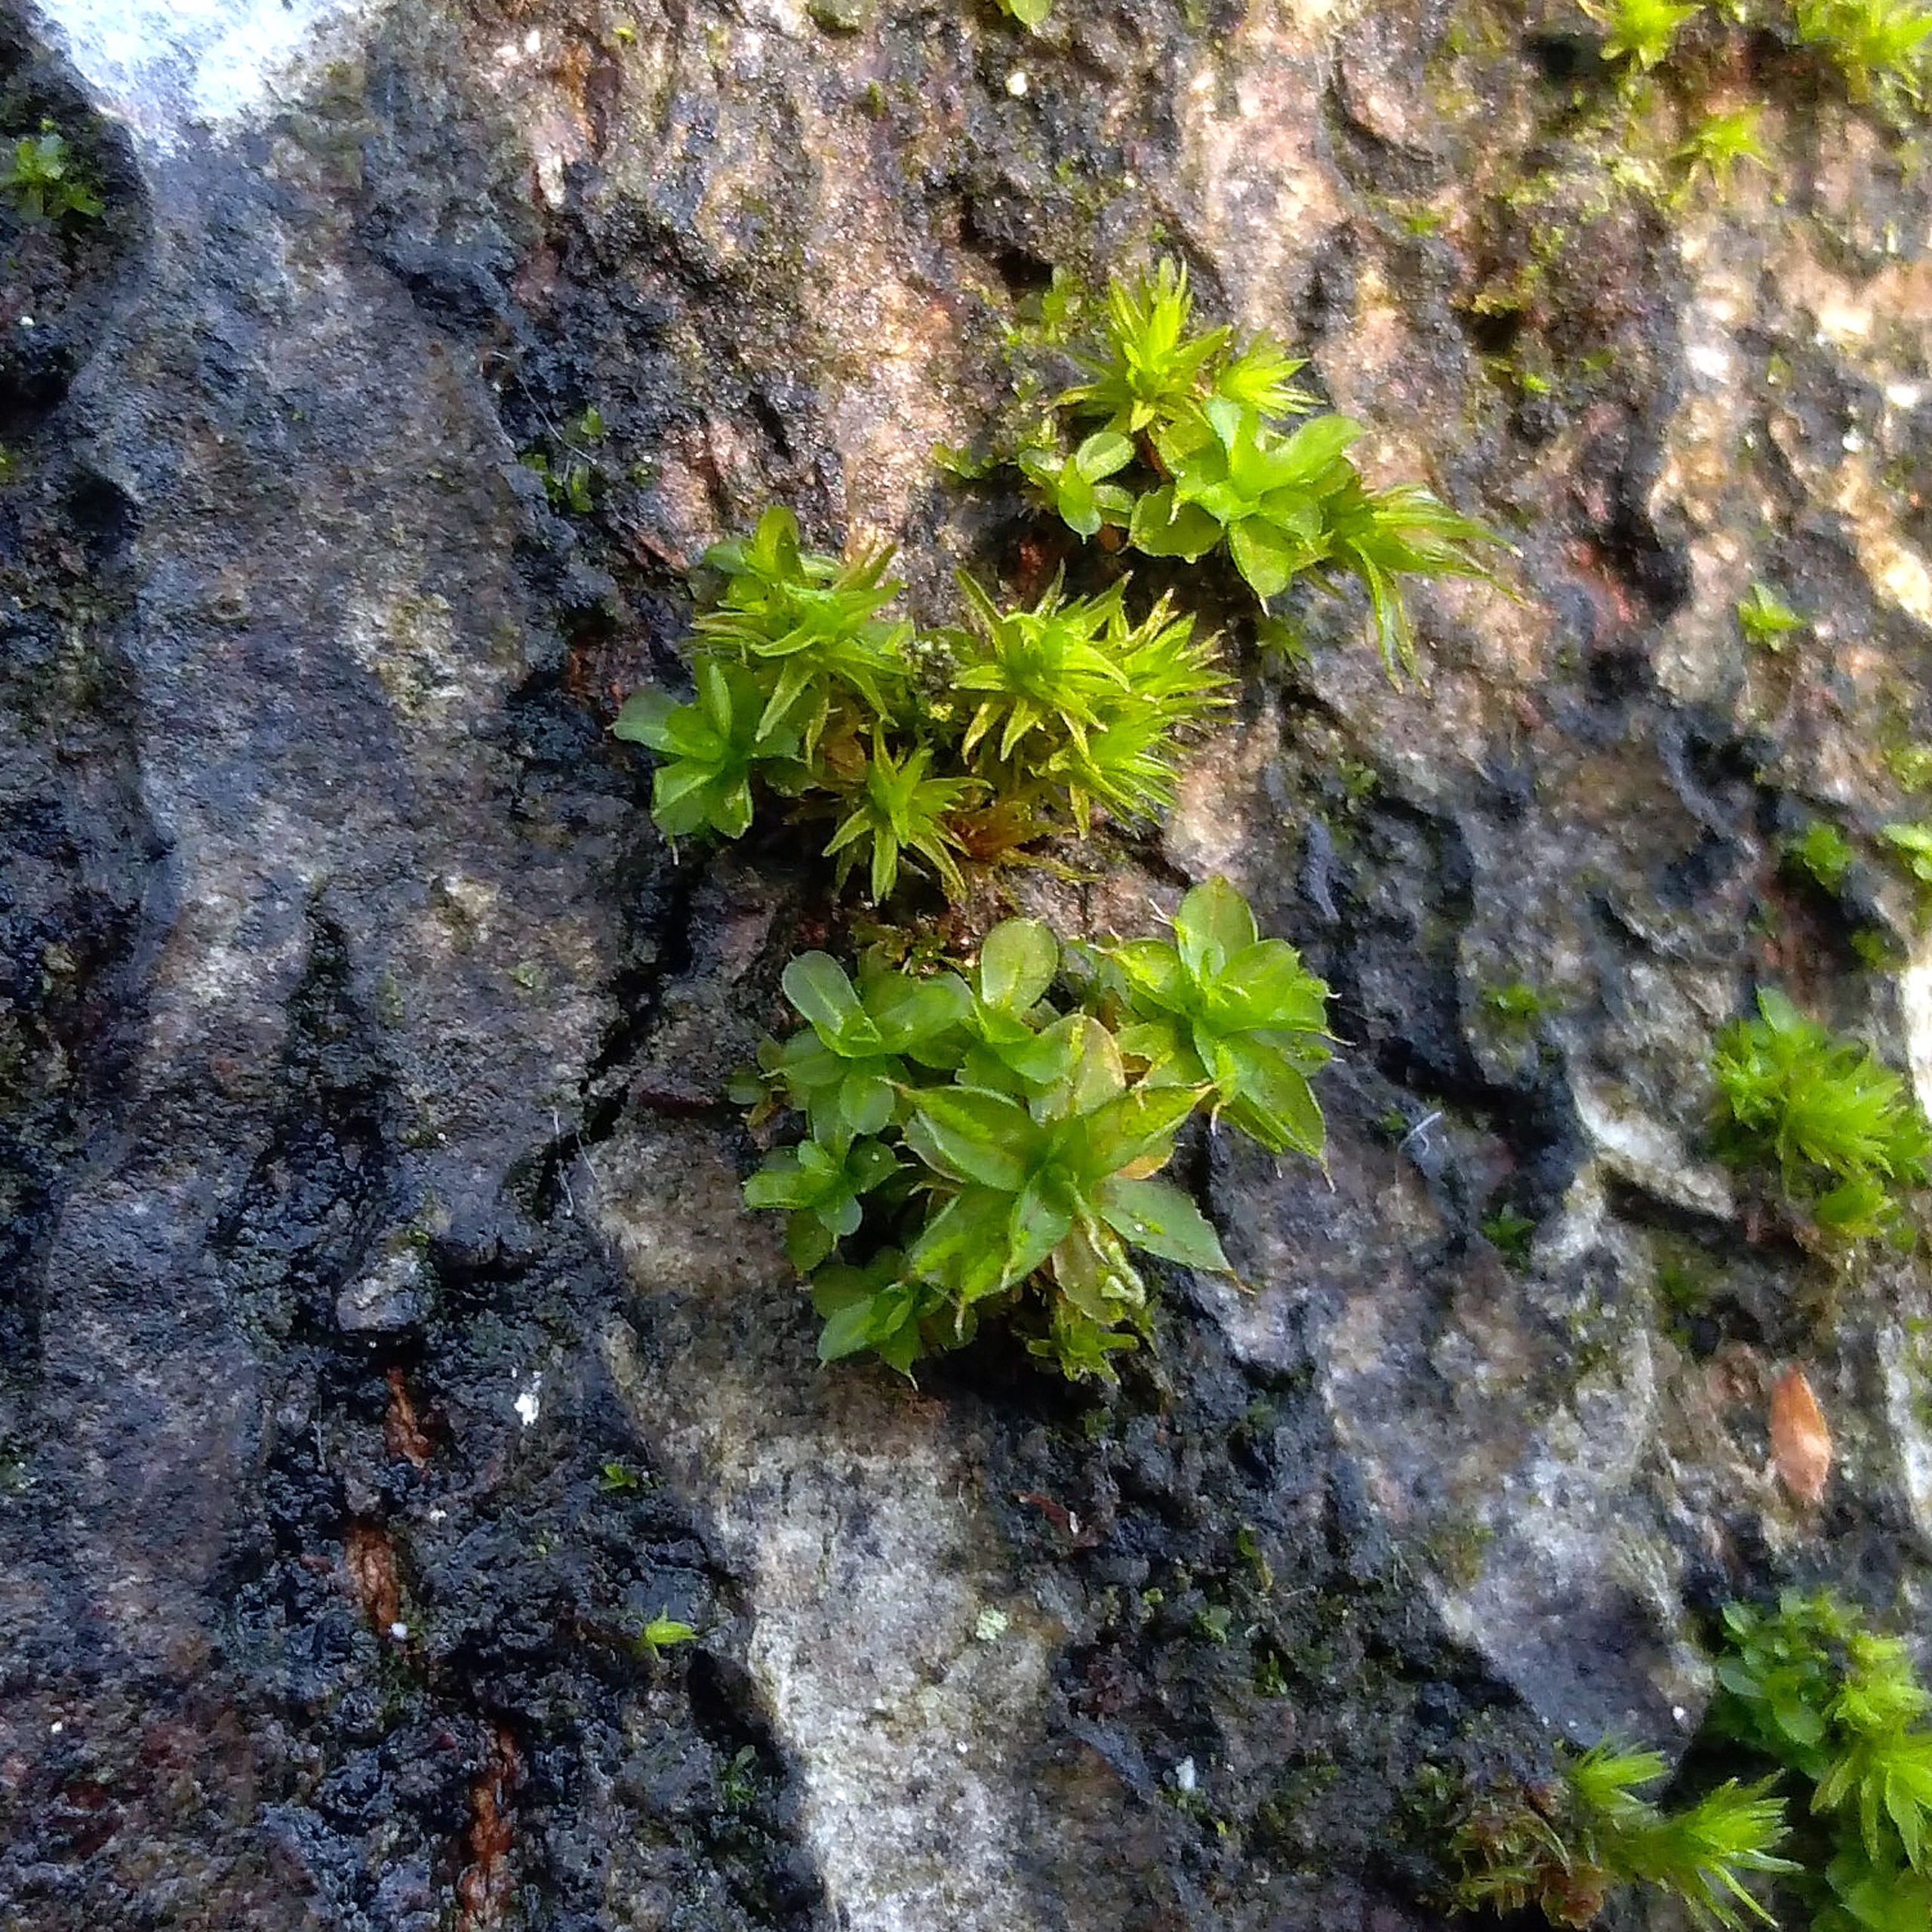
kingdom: Plantae
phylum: Bryophyta
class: Bryopsida
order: Pottiales
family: Pottiaceae
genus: Syntrichia
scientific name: Syntrichia papillosa
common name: Bark-hårstjerne
